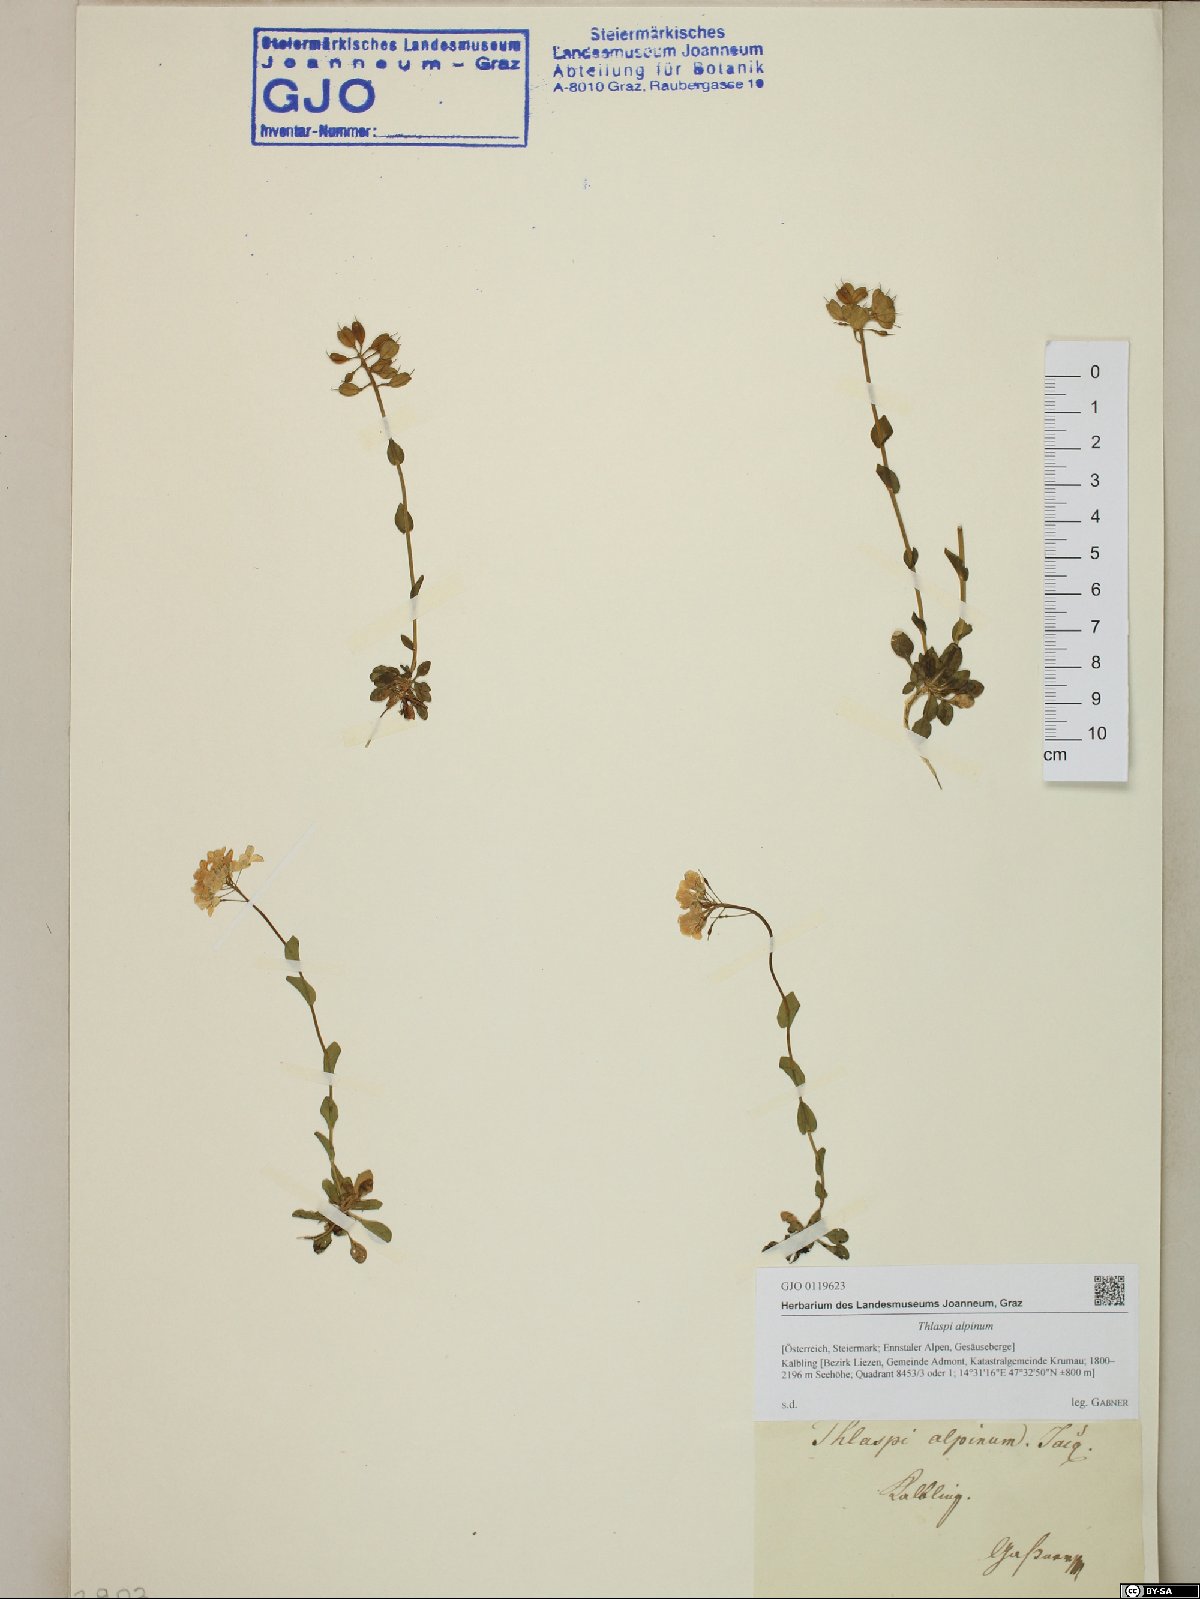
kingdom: Plantae
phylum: Tracheophyta
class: Magnoliopsida
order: Brassicales
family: Brassicaceae
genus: Noccaea
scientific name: Noccaea alpestris
